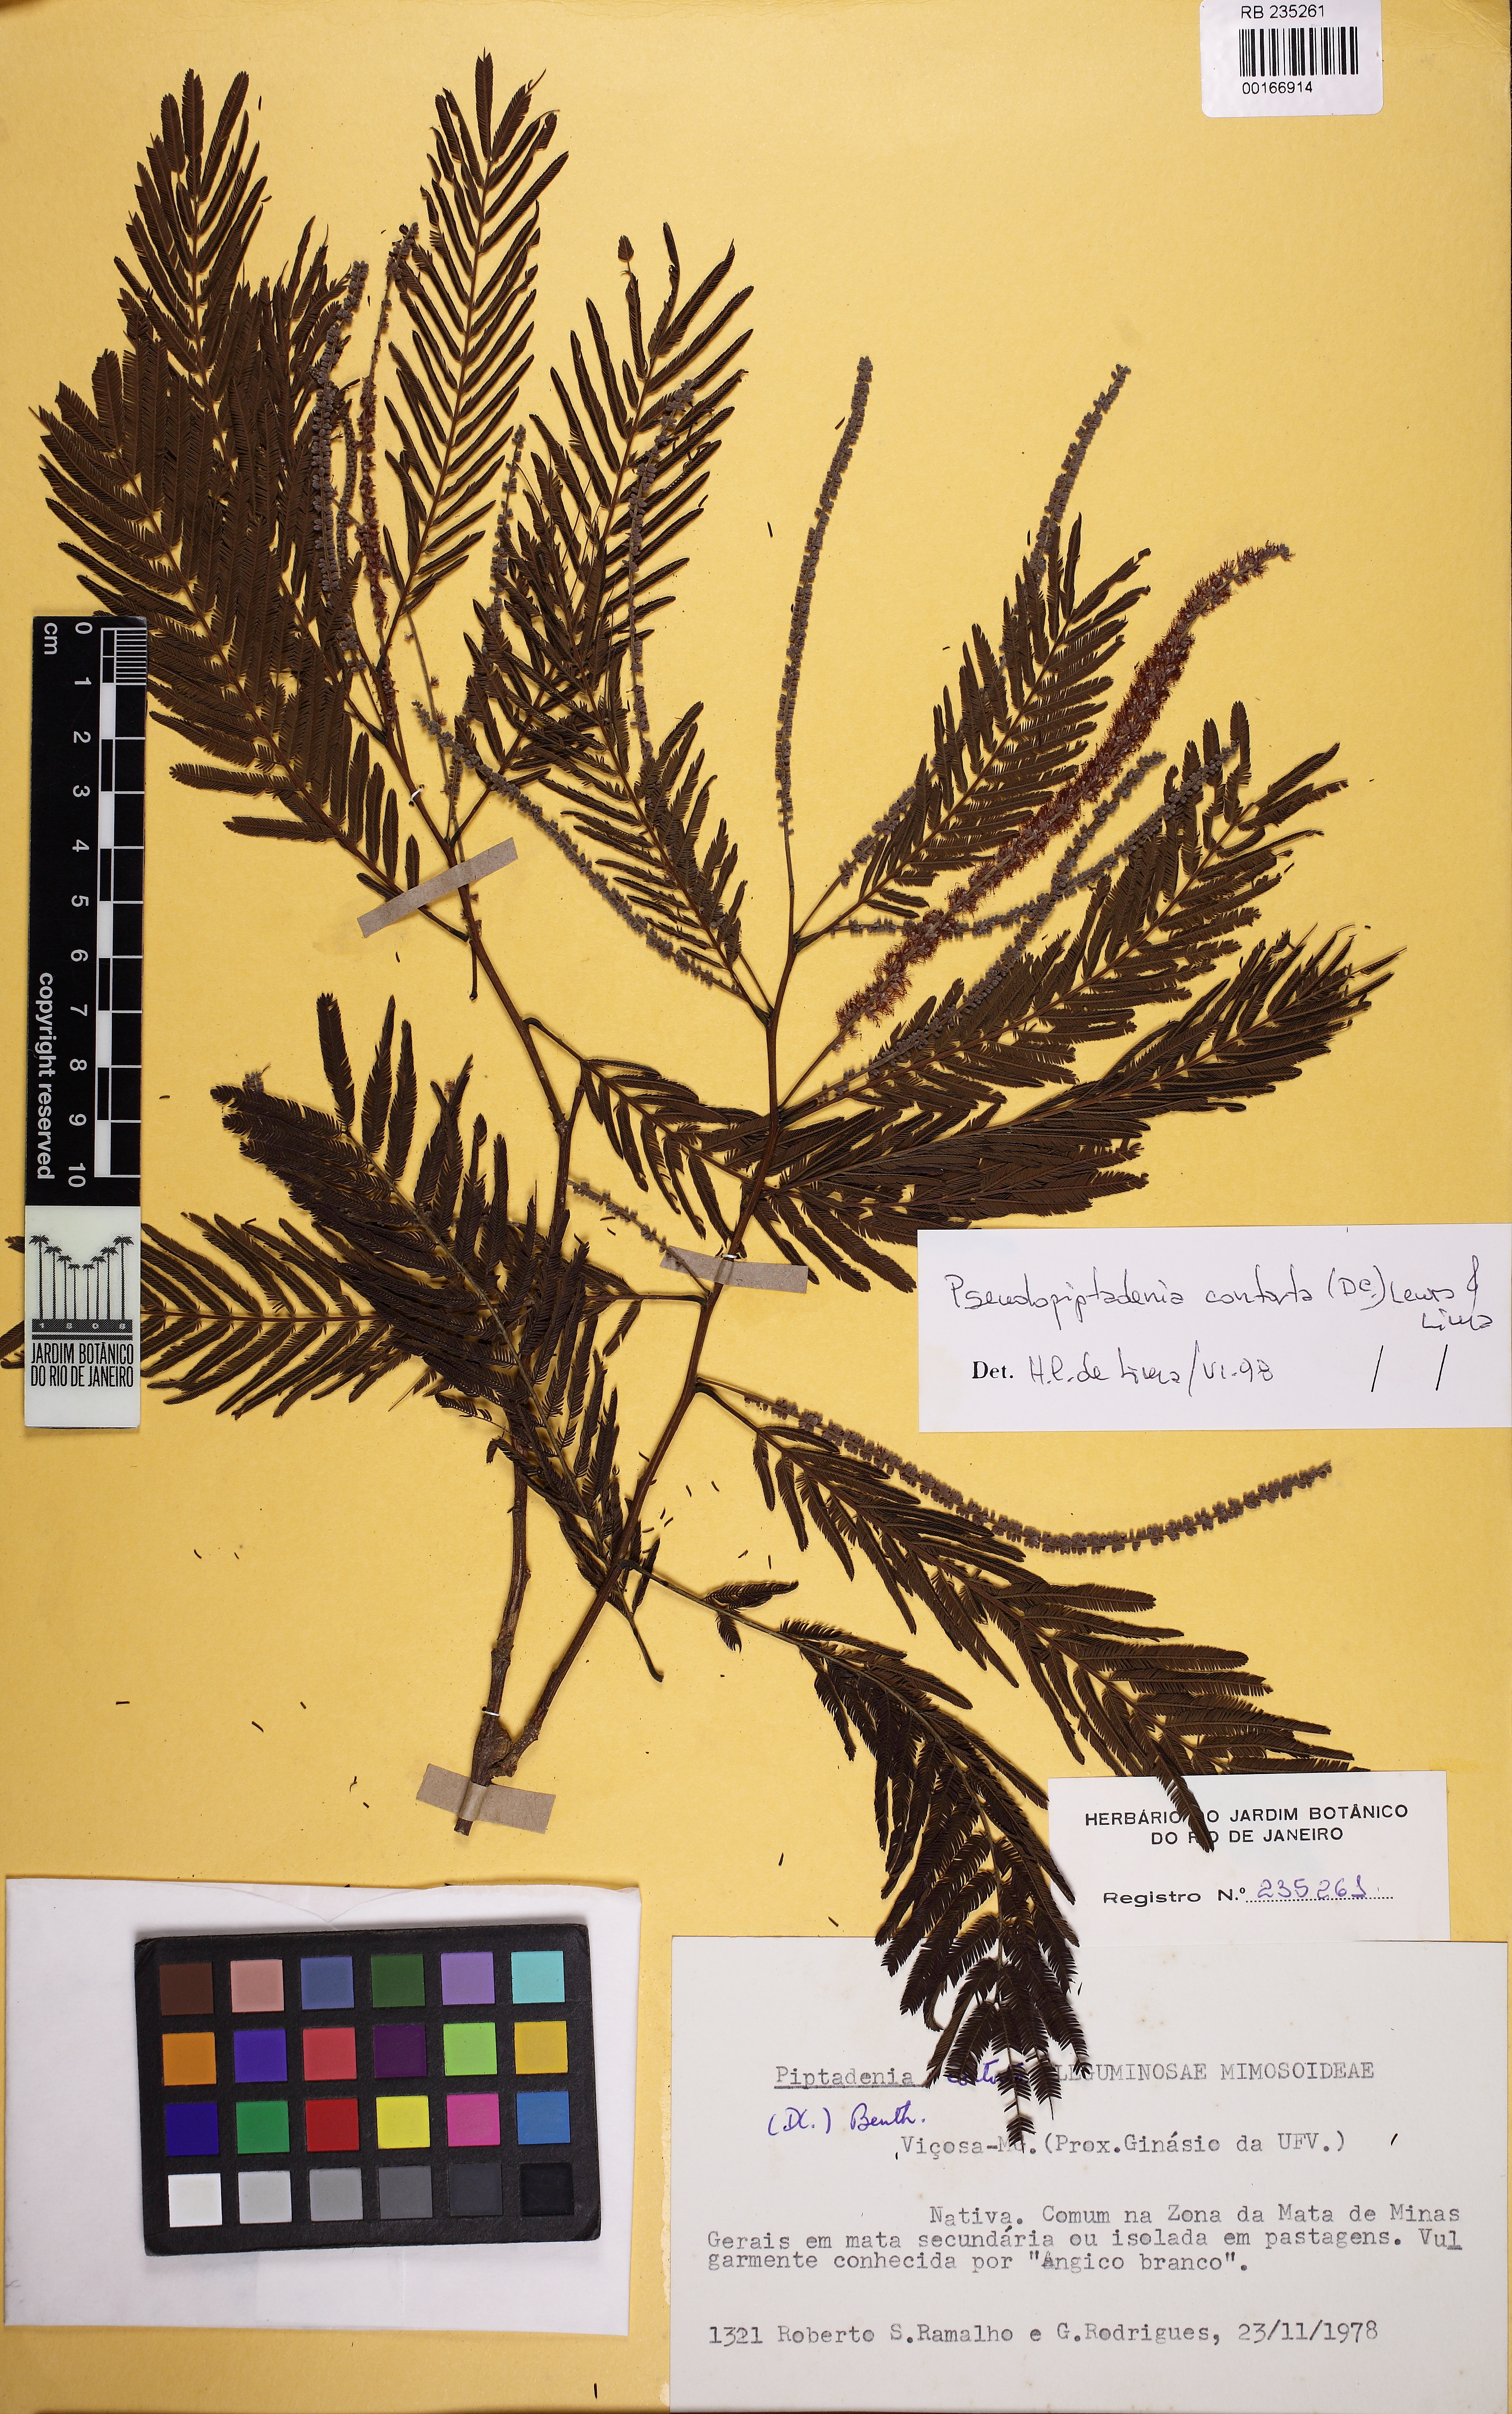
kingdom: Plantae
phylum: Tracheophyta
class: Magnoliopsida
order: Fabales
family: Fabaceae
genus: Pseudopiptadenia
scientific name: Pseudopiptadenia contorta
